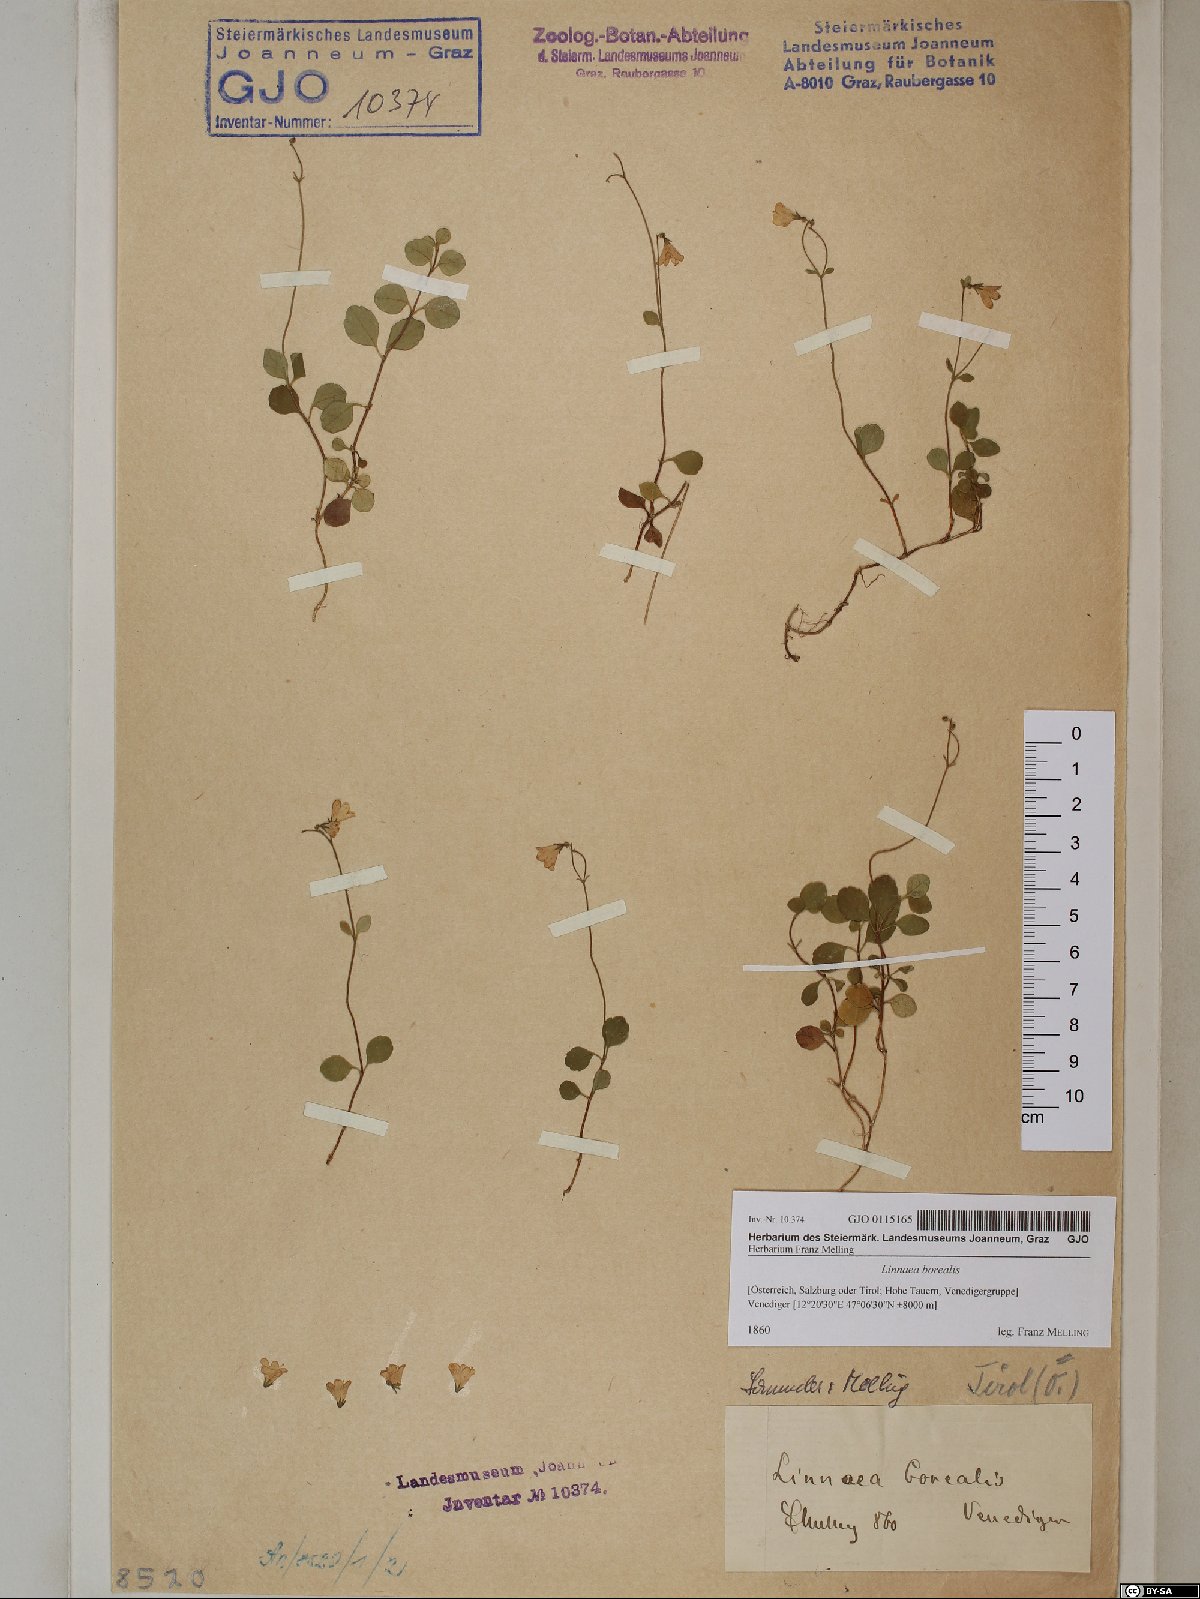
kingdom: Plantae
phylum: Tracheophyta
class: Magnoliopsida
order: Dipsacales
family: Caprifoliaceae
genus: Linnaea
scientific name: Linnaea borealis
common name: Twinflower
